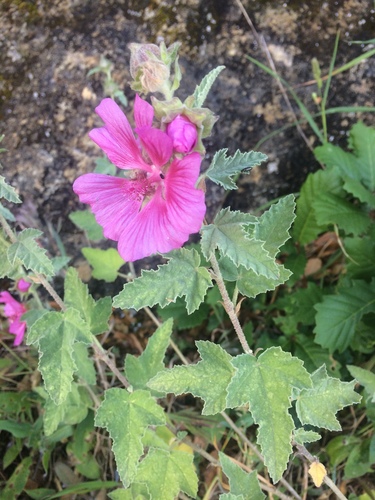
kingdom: Plantae
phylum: Tracheophyta
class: Magnoliopsida
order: Malvales
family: Malvaceae
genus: Malva
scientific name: Malva olbia
